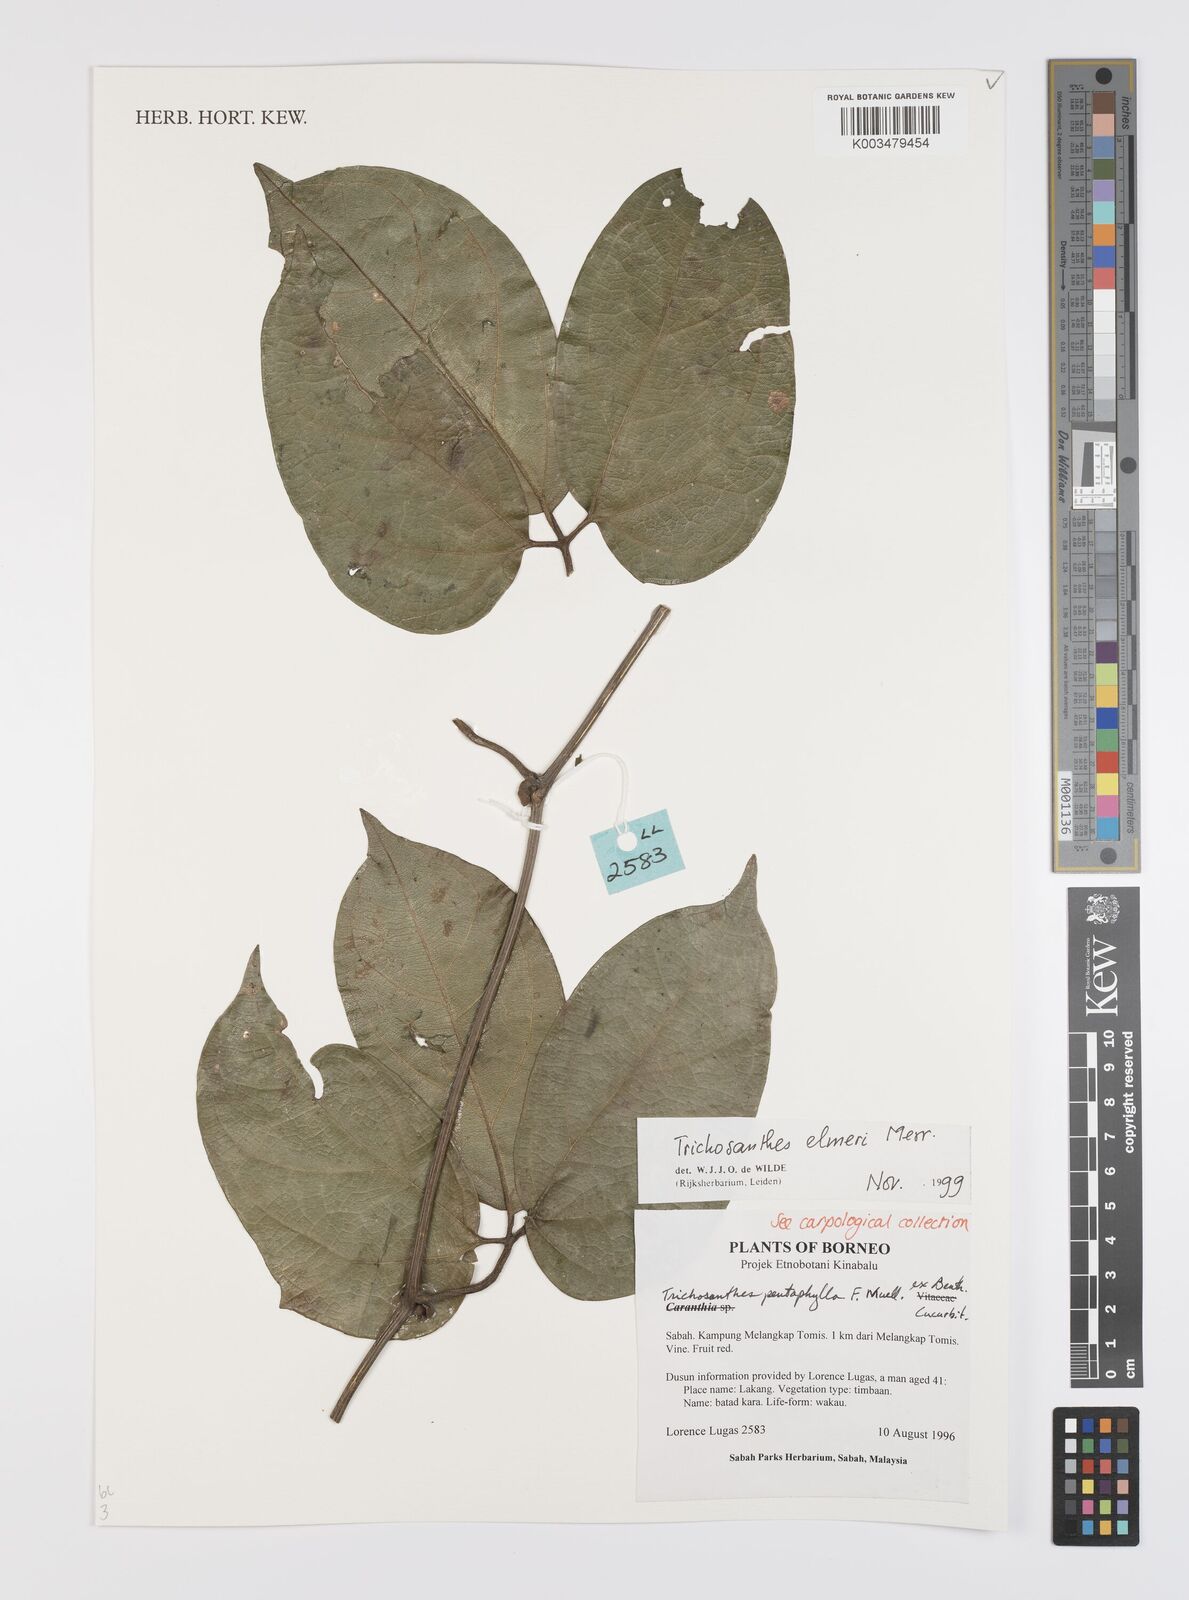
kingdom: Plantae
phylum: Tracheophyta
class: Magnoliopsida
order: Cucurbitales
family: Cucurbitaceae
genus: Trichosanthes
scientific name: Trichosanthes elmeri
